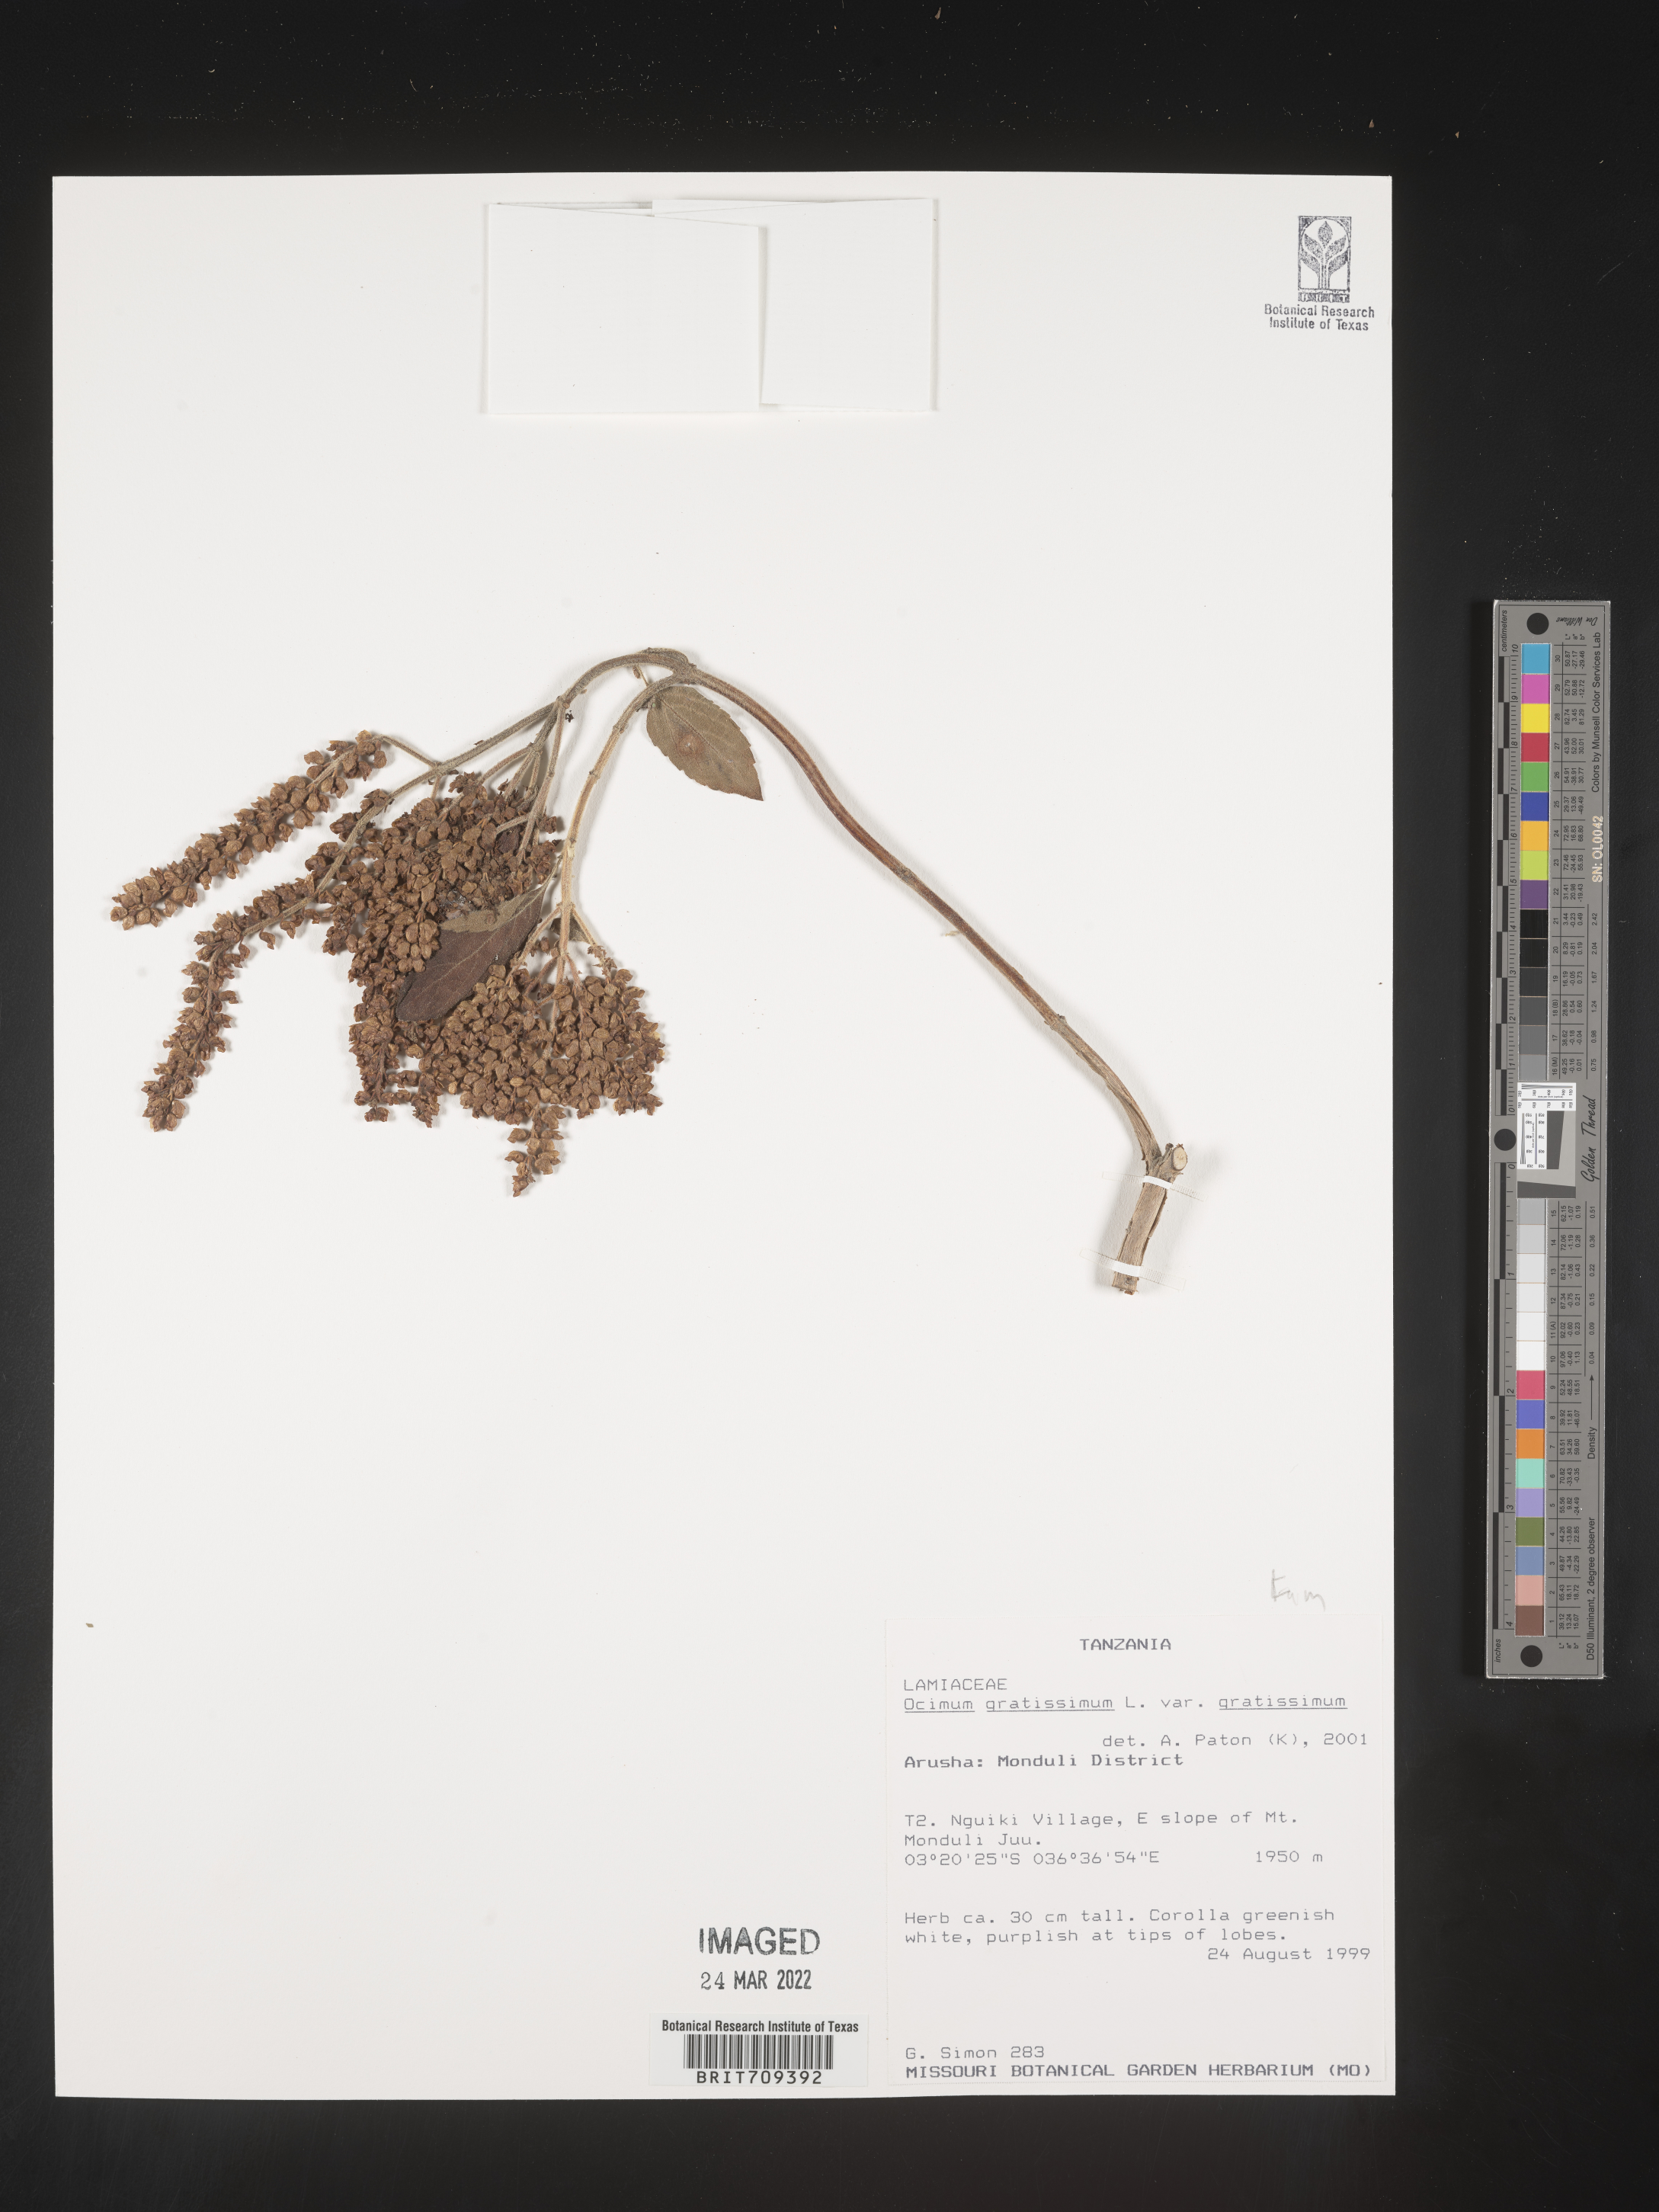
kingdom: Plantae
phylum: Tracheophyta
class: Magnoliopsida
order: Lamiales
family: Lamiaceae
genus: Ocimum
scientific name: Ocimum
